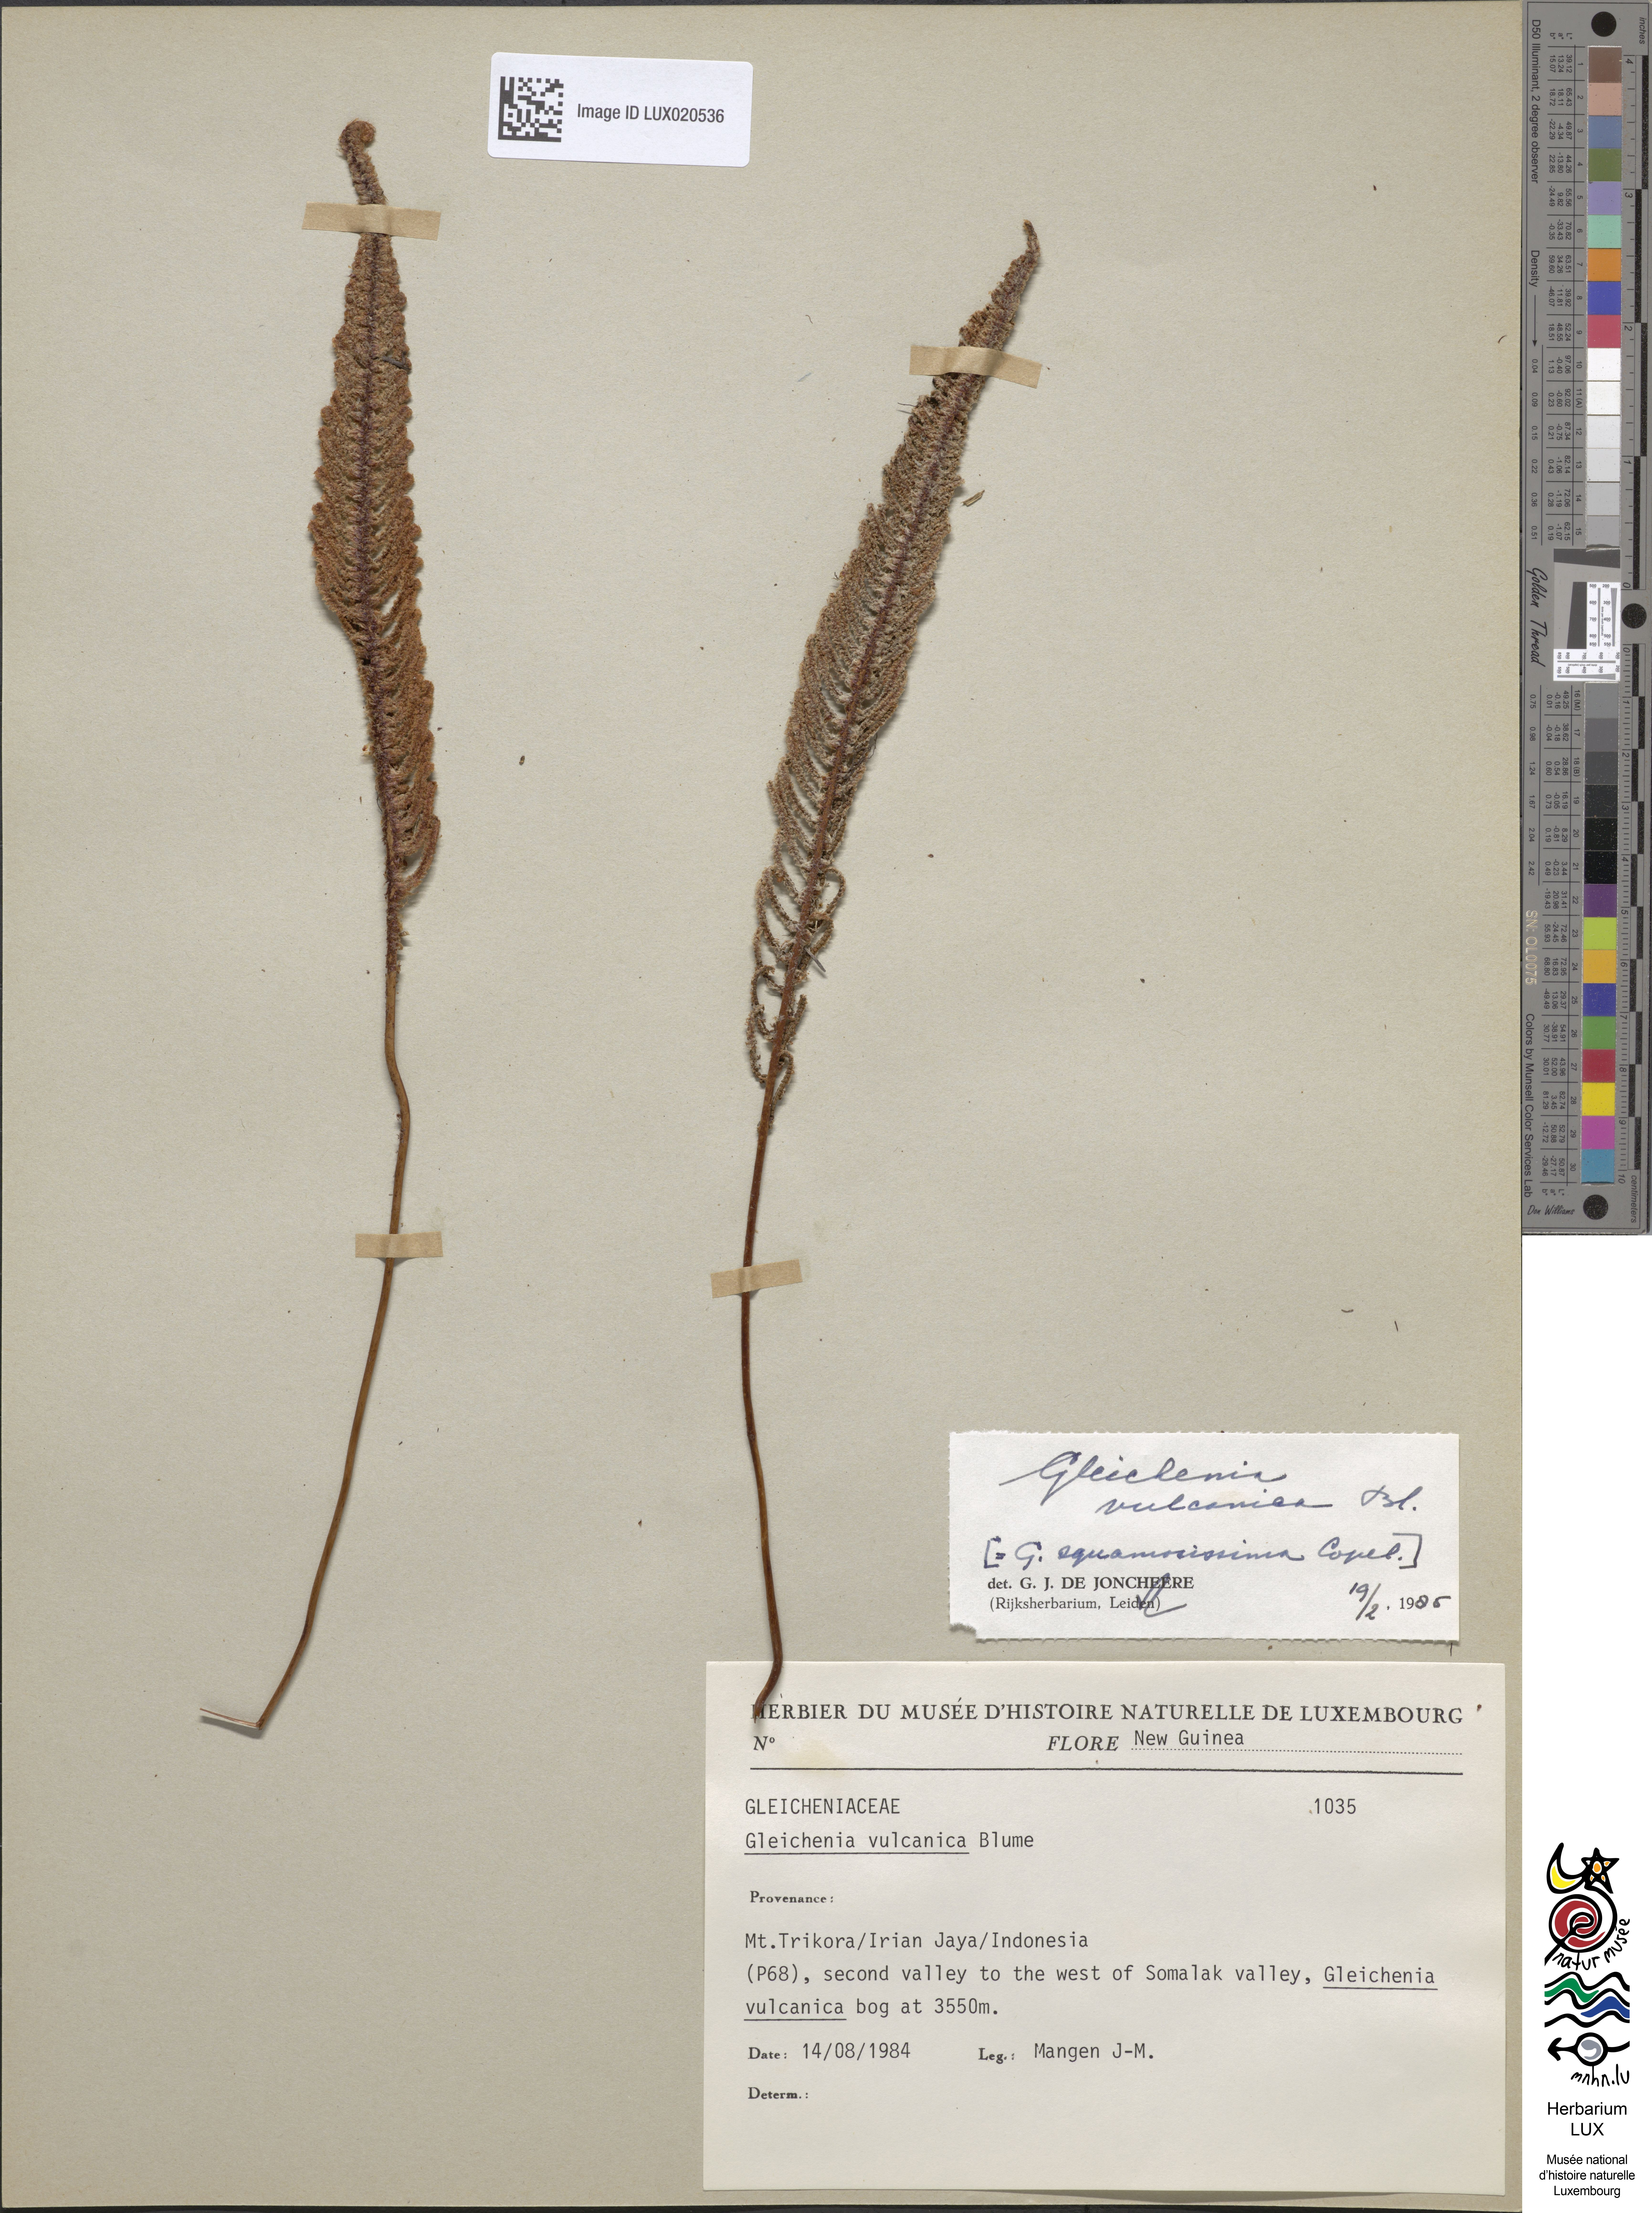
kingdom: Plantae
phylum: Tracheophyta
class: Polypodiopsida
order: Gleicheniales
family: Gleicheniaceae
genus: Gleichenia
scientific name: Gleichenia vulcanica
